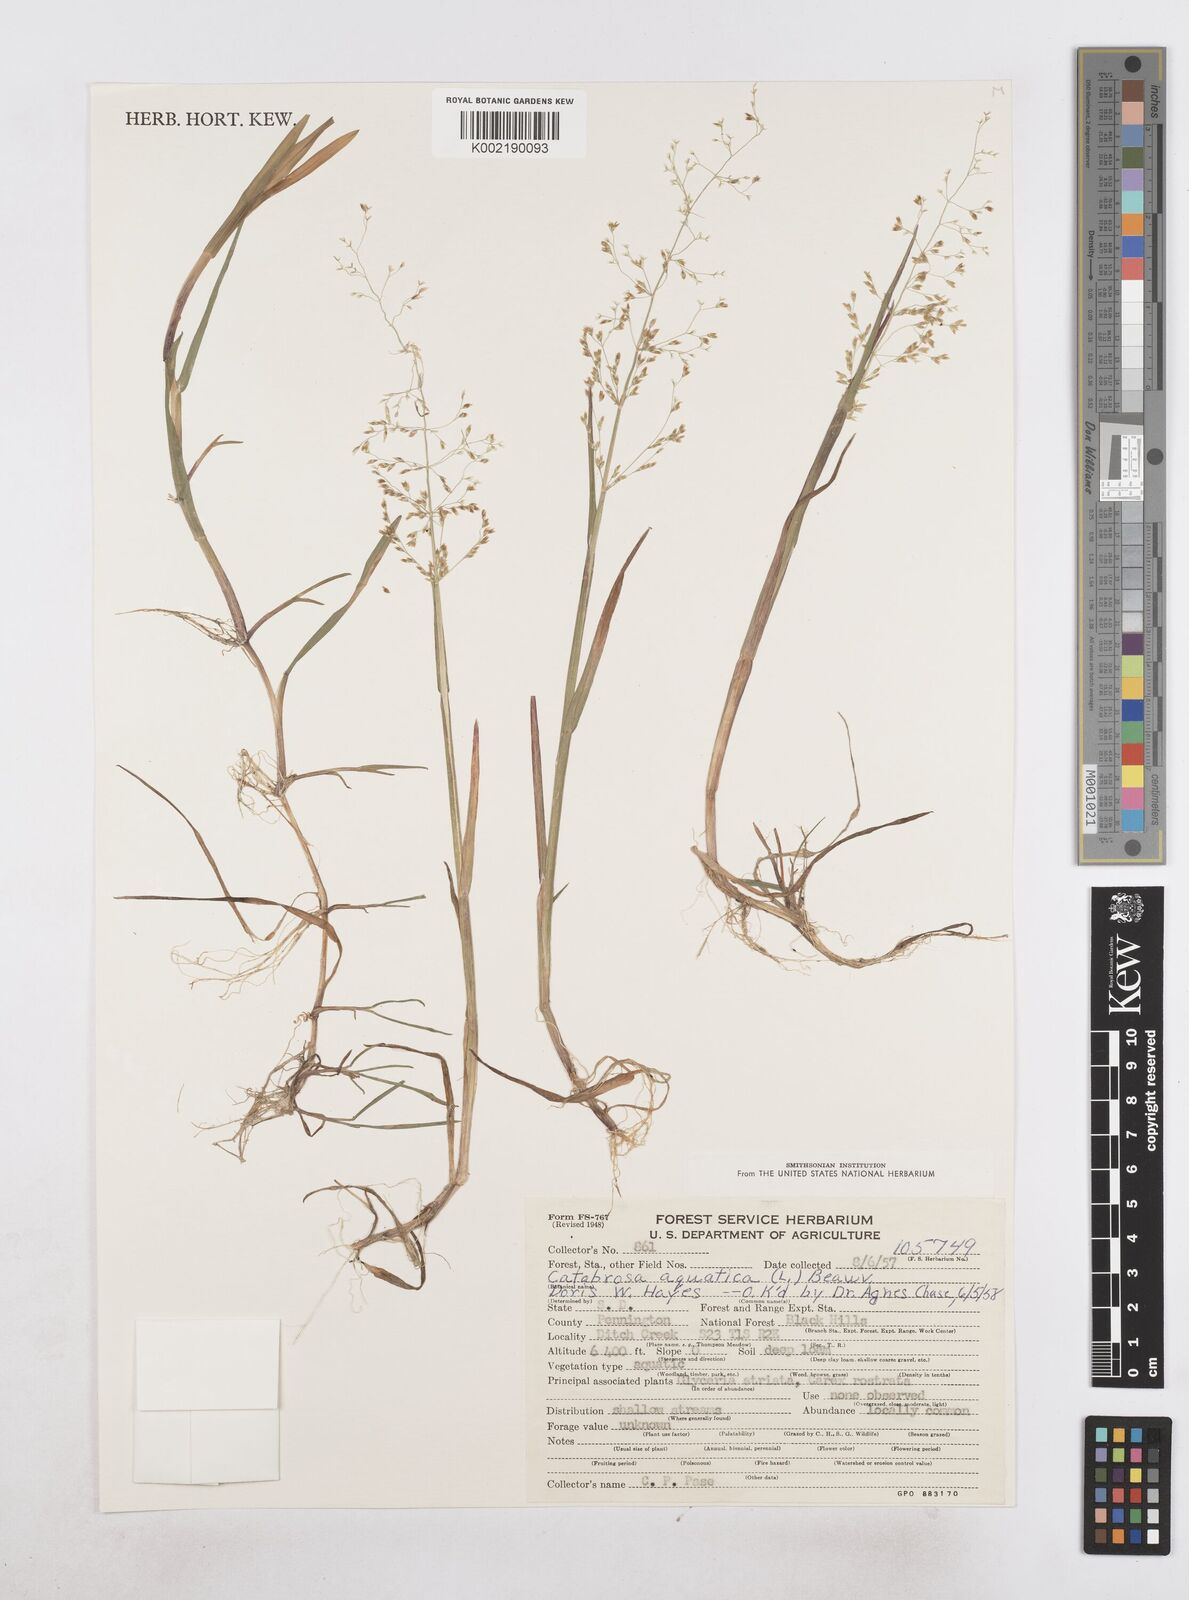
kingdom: Plantae
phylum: Tracheophyta
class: Liliopsida
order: Poales
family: Poaceae
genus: Catabrosa
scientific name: Catabrosa aquatica
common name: Whorl-grass
